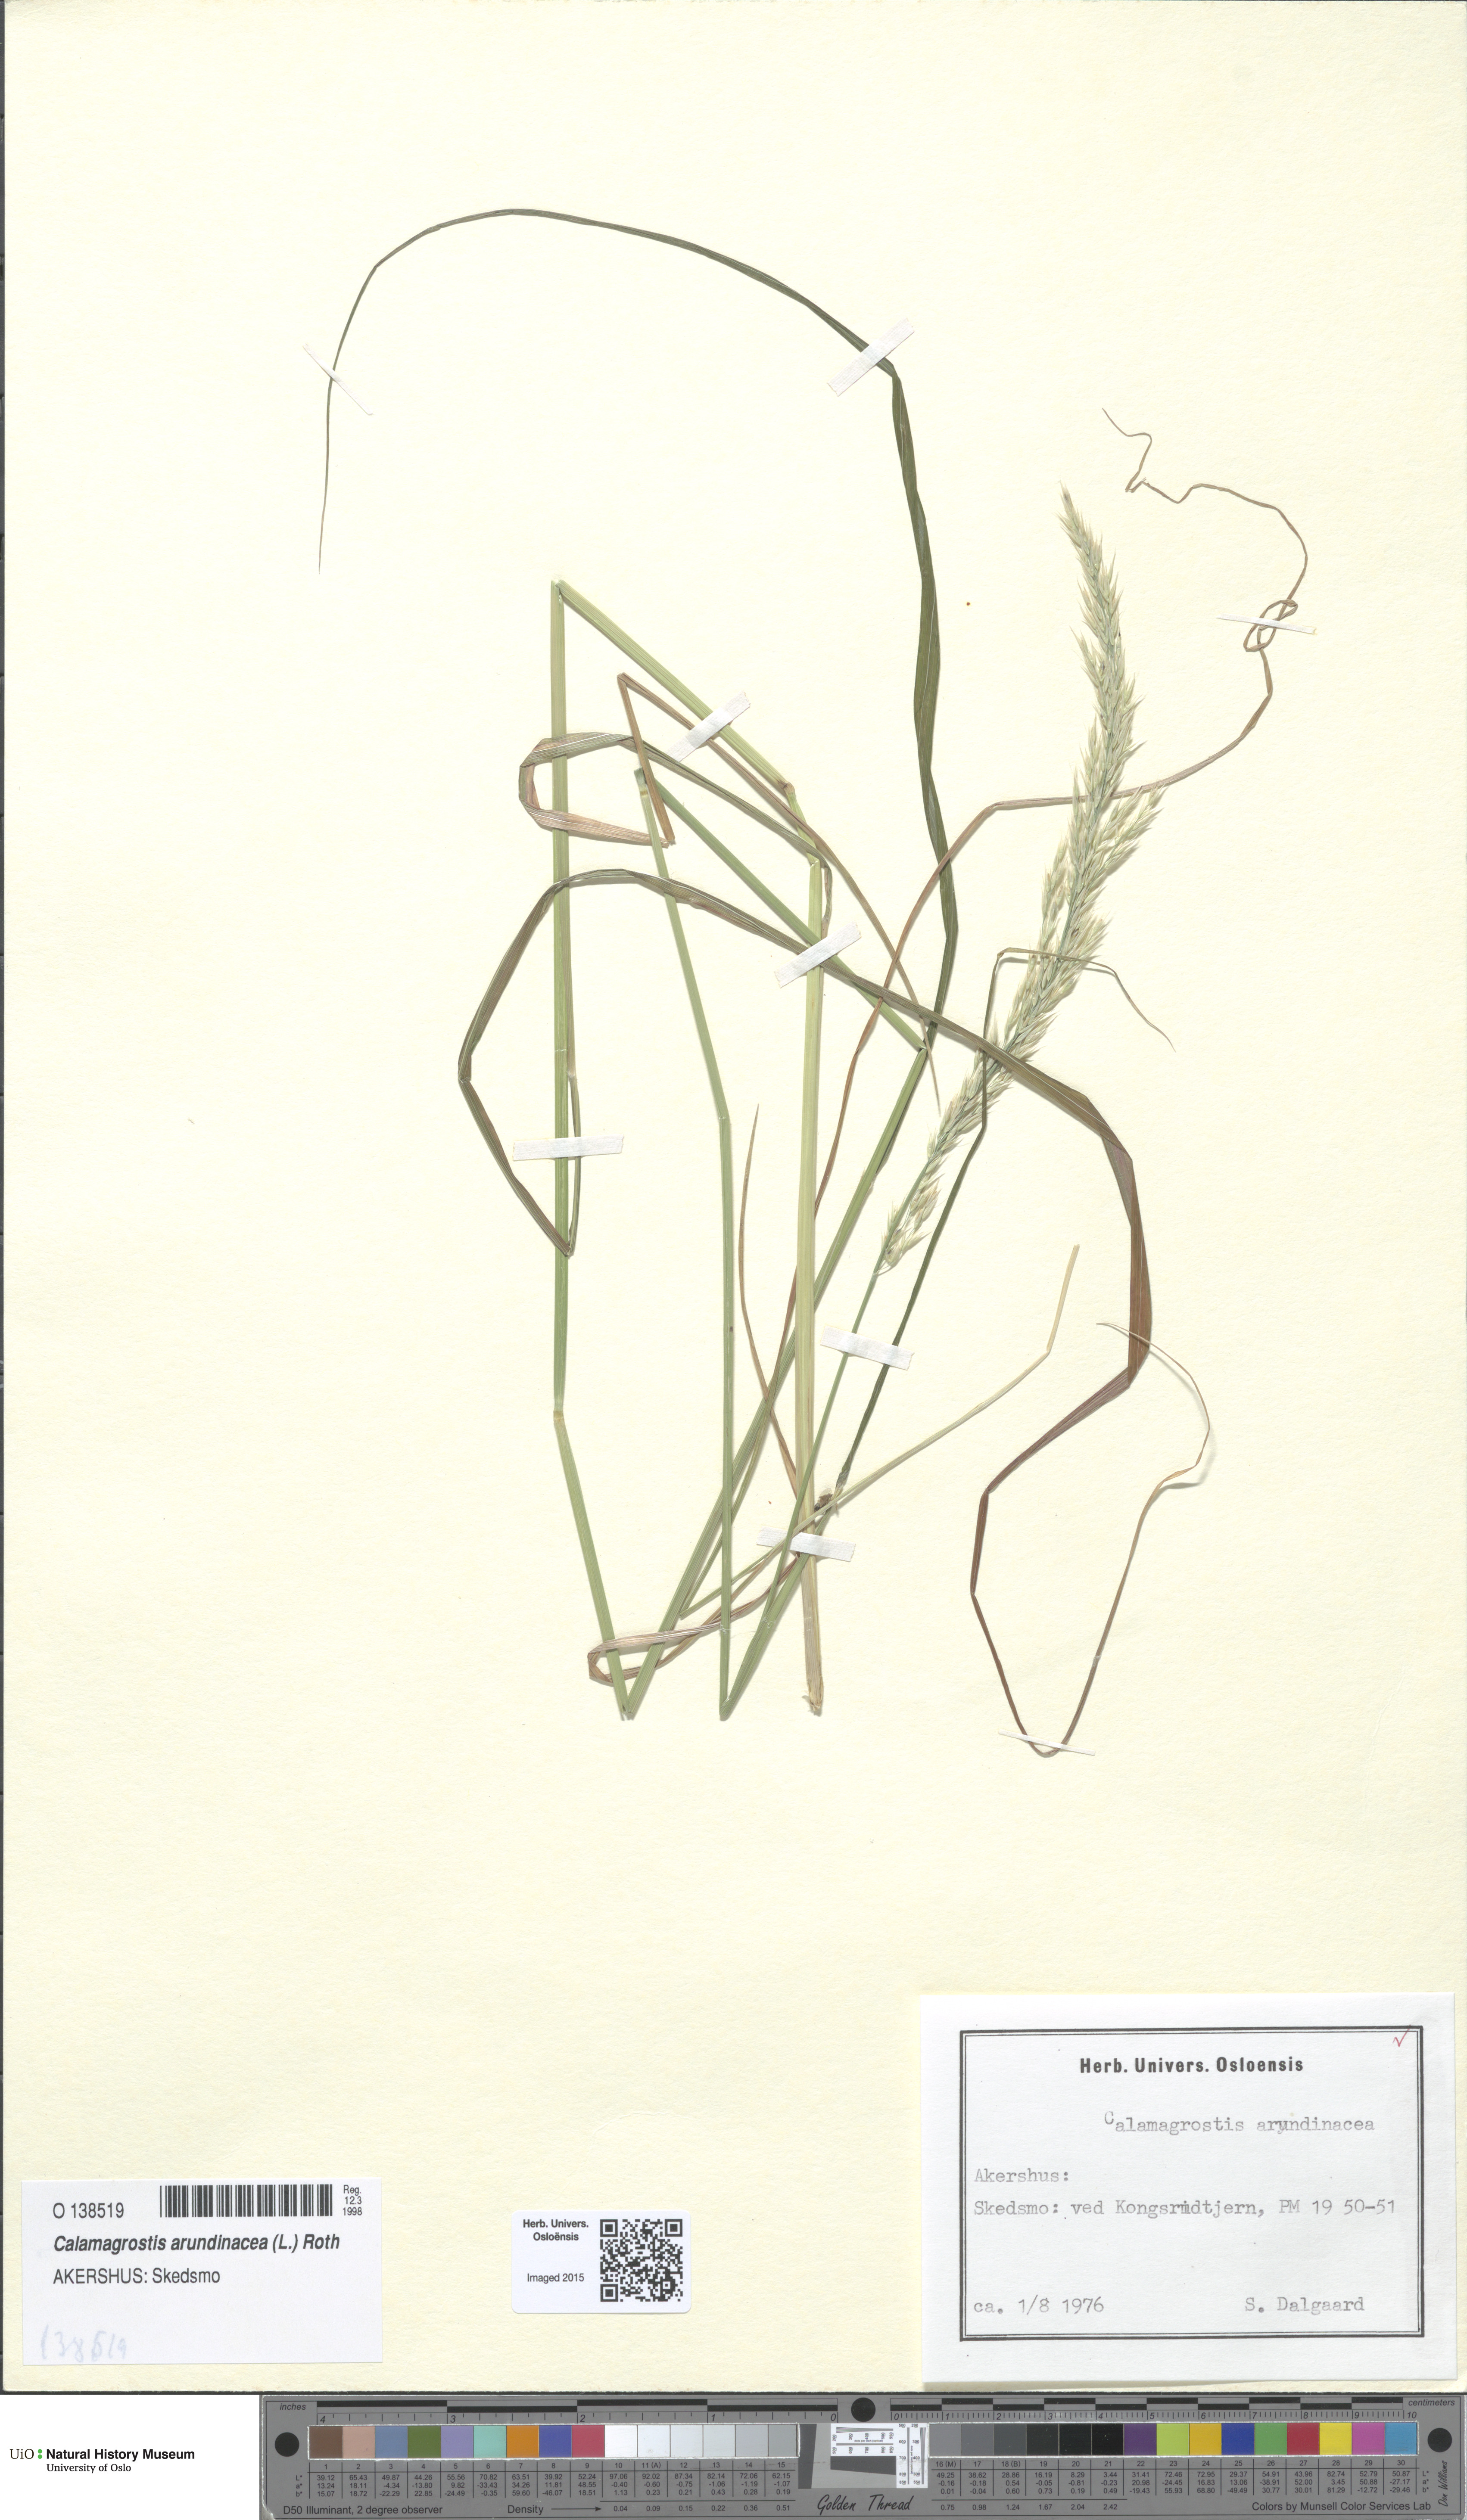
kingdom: Plantae
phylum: Tracheophyta
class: Liliopsida
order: Poales
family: Poaceae
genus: Calamagrostis
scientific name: Calamagrostis arundinacea
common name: Metskastik
